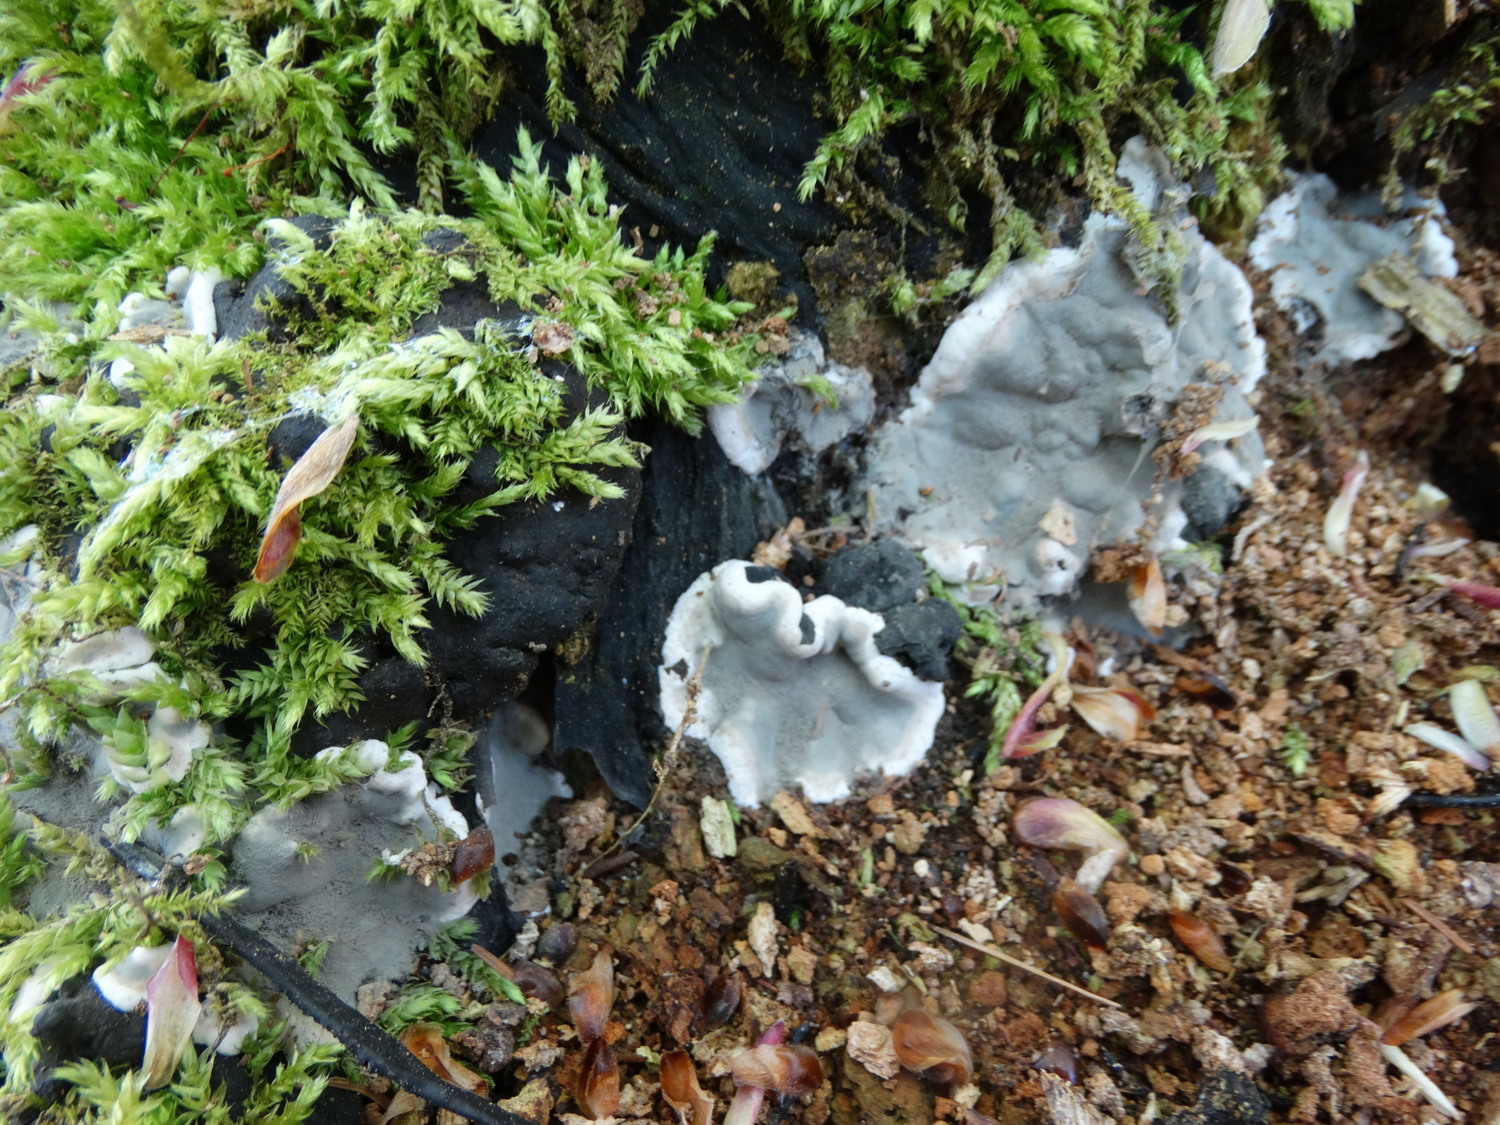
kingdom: Fungi
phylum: Ascomycota
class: Sordariomycetes
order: Xylariales
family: Xylariaceae
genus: Kretzschmaria
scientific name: Kretzschmaria deusta
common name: stor kulsvamp
